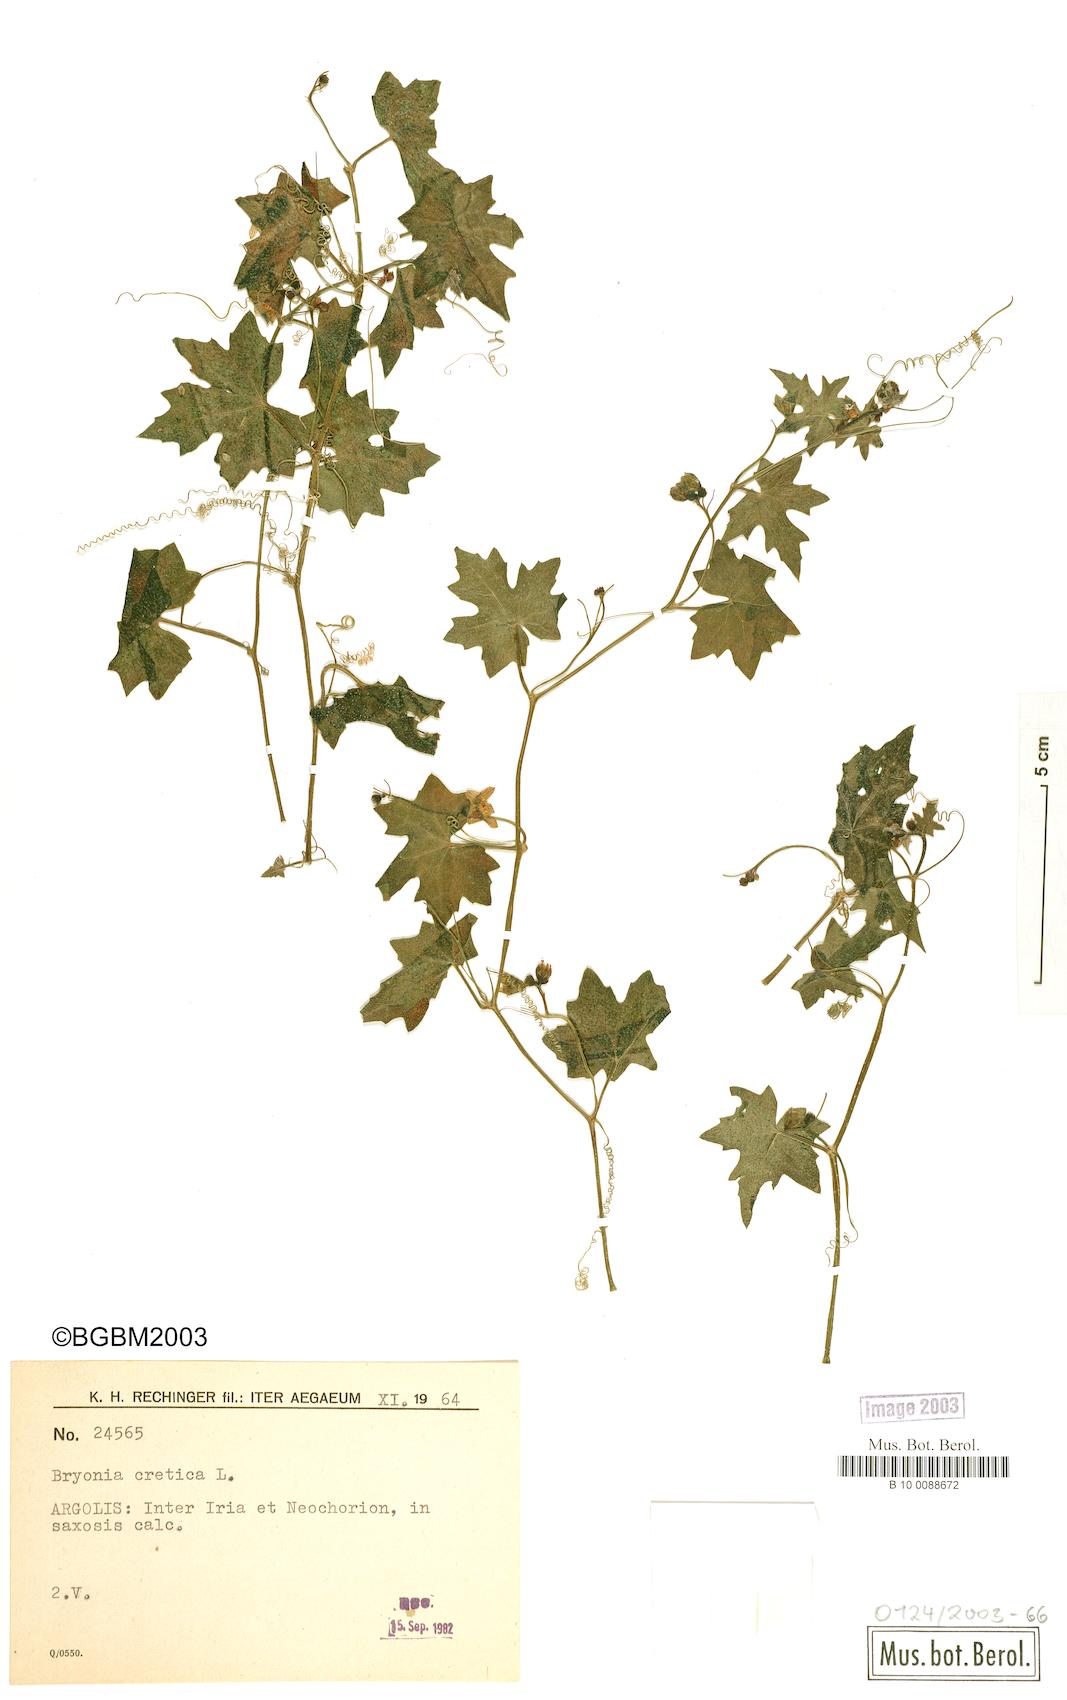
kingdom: Plantae
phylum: Tracheophyta
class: Magnoliopsida
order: Cucurbitales
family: Cucurbitaceae
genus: Bryonia
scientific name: Bryonia cretica
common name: Cretan bryony
